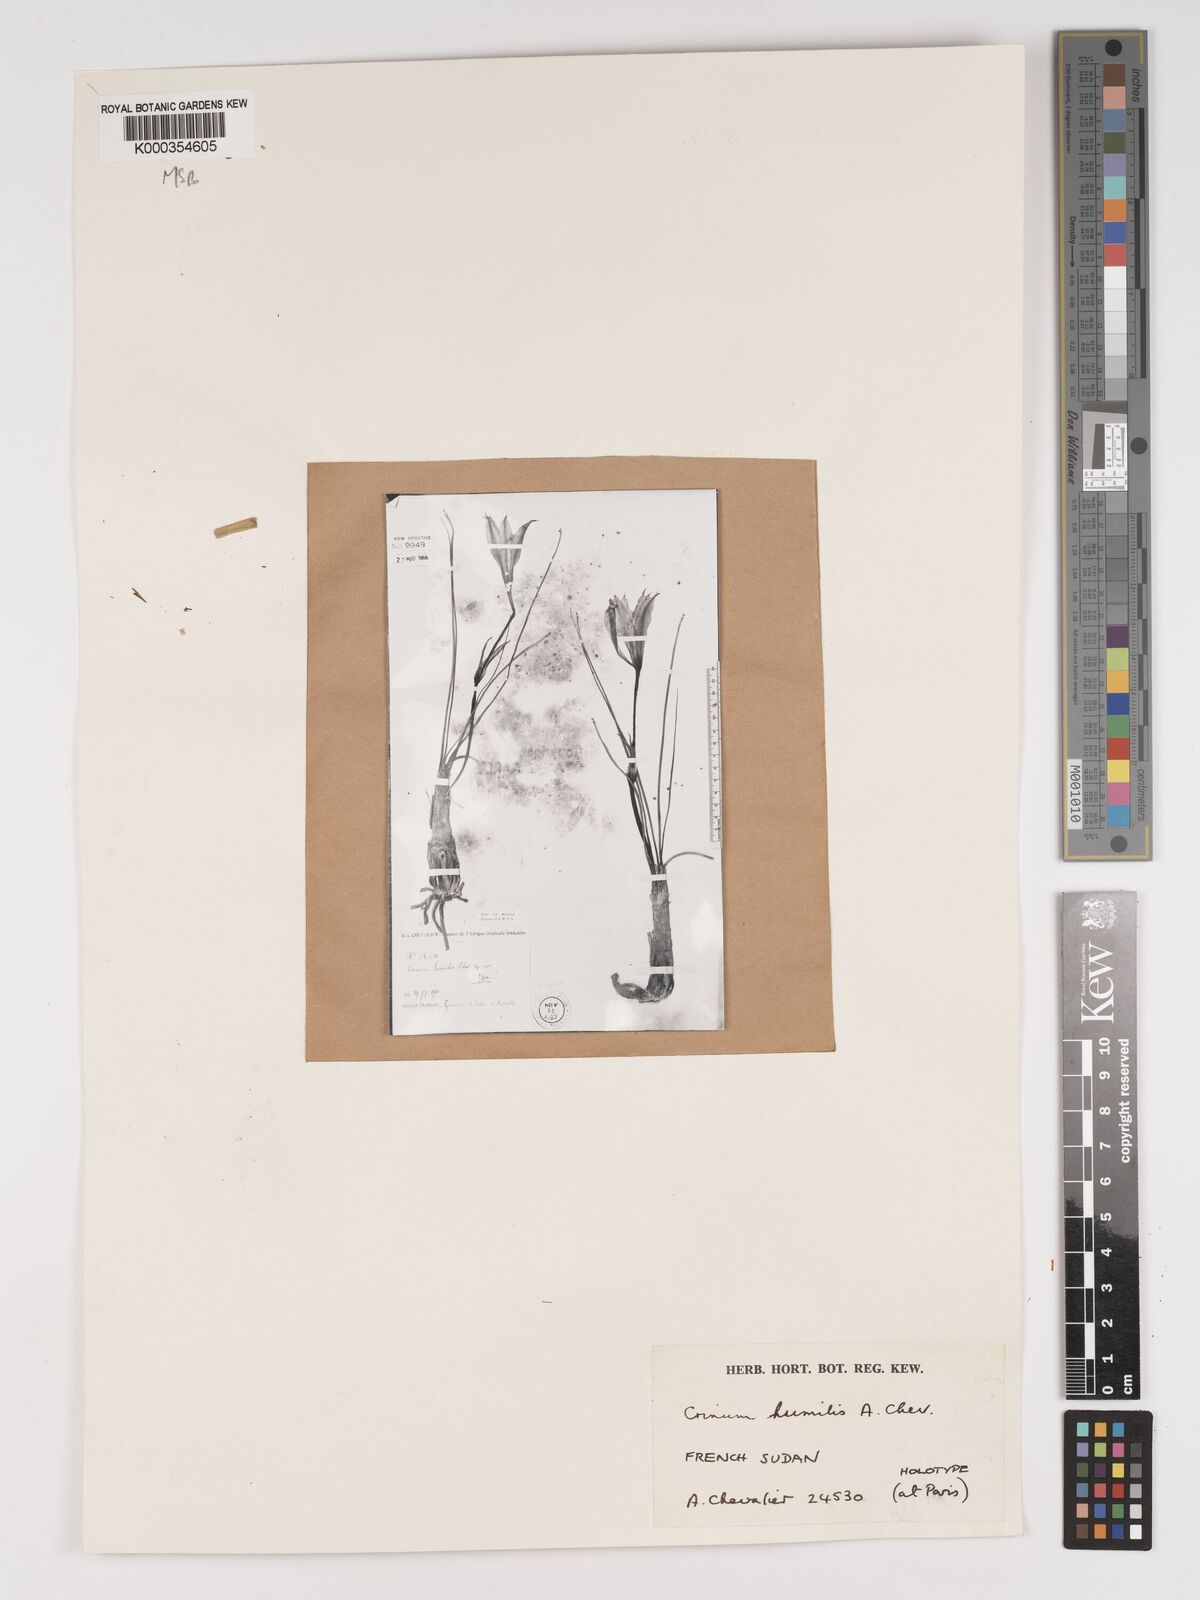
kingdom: Plantae
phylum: Tracheophyta
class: Liliopsida
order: Asparagales
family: Amaryllidaceae
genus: Crinum
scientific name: Crinum
